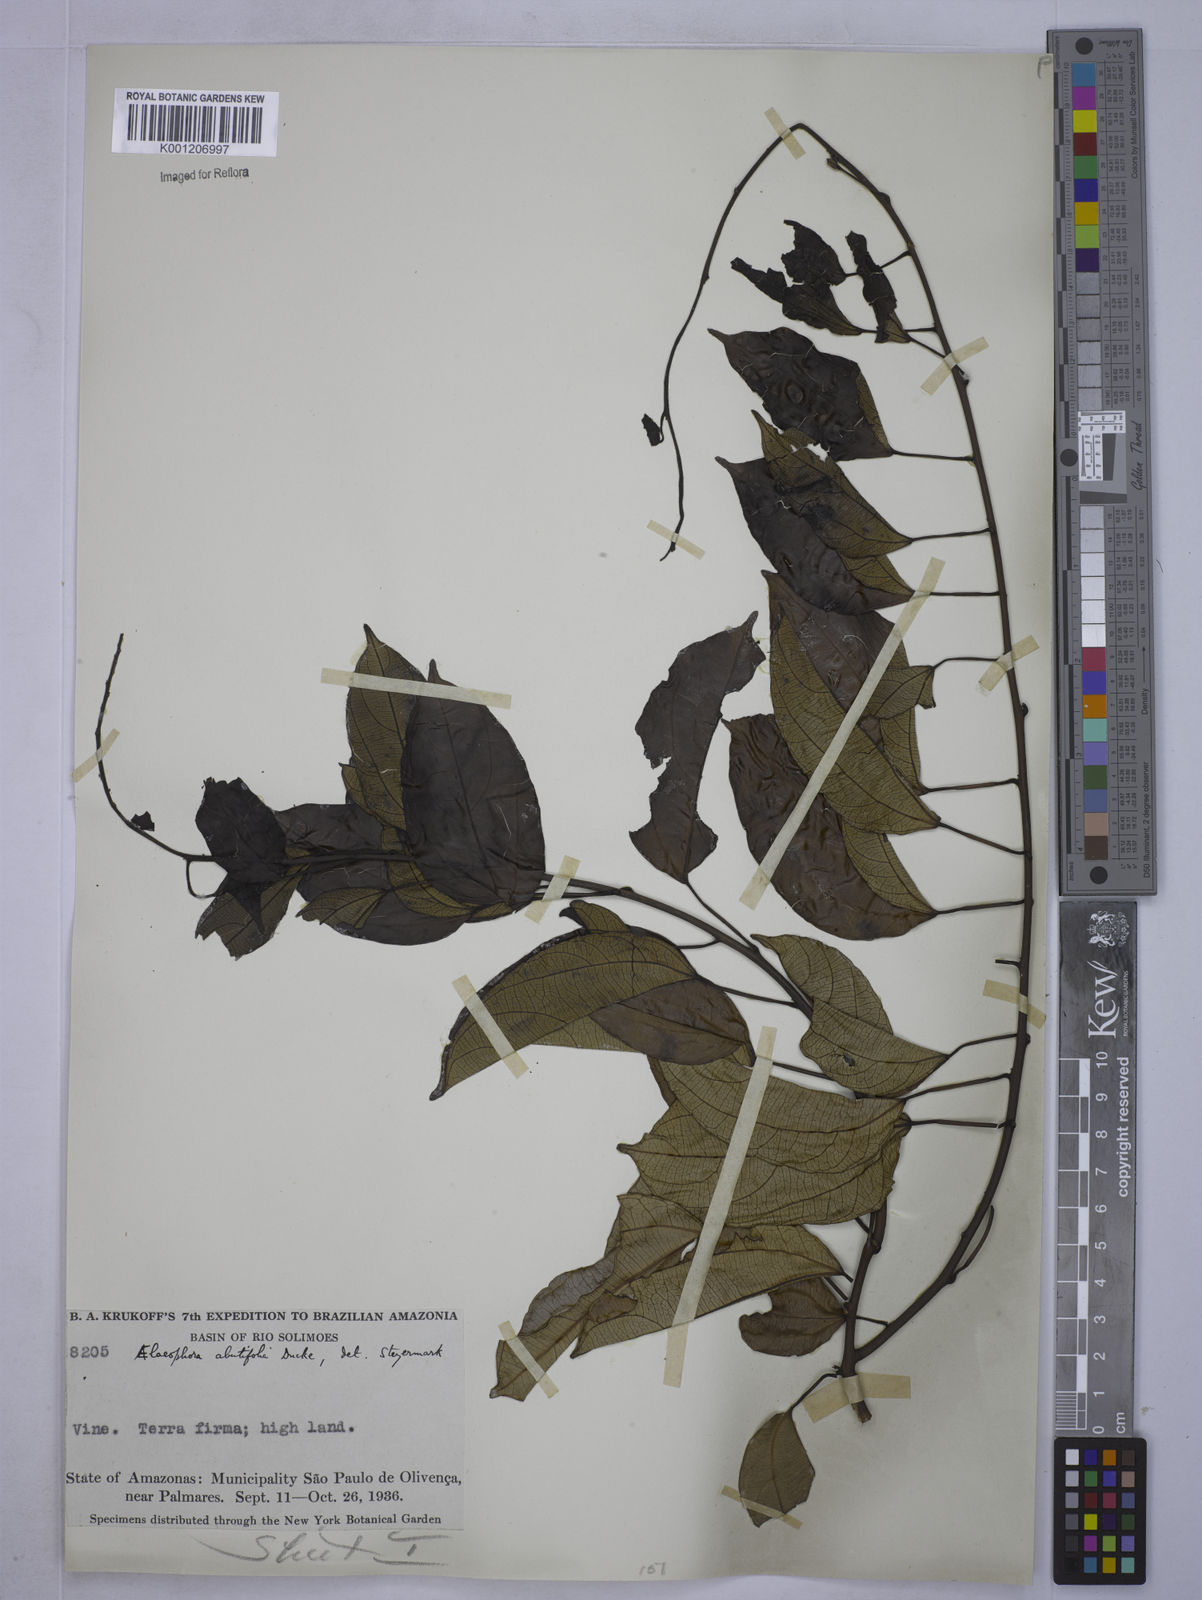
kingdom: Plantae
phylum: Tracheophyta
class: Magnoliopsida
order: Malpighiales
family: Euphorbiaceae
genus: Plukenetia
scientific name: Plukenetia polyadenia
